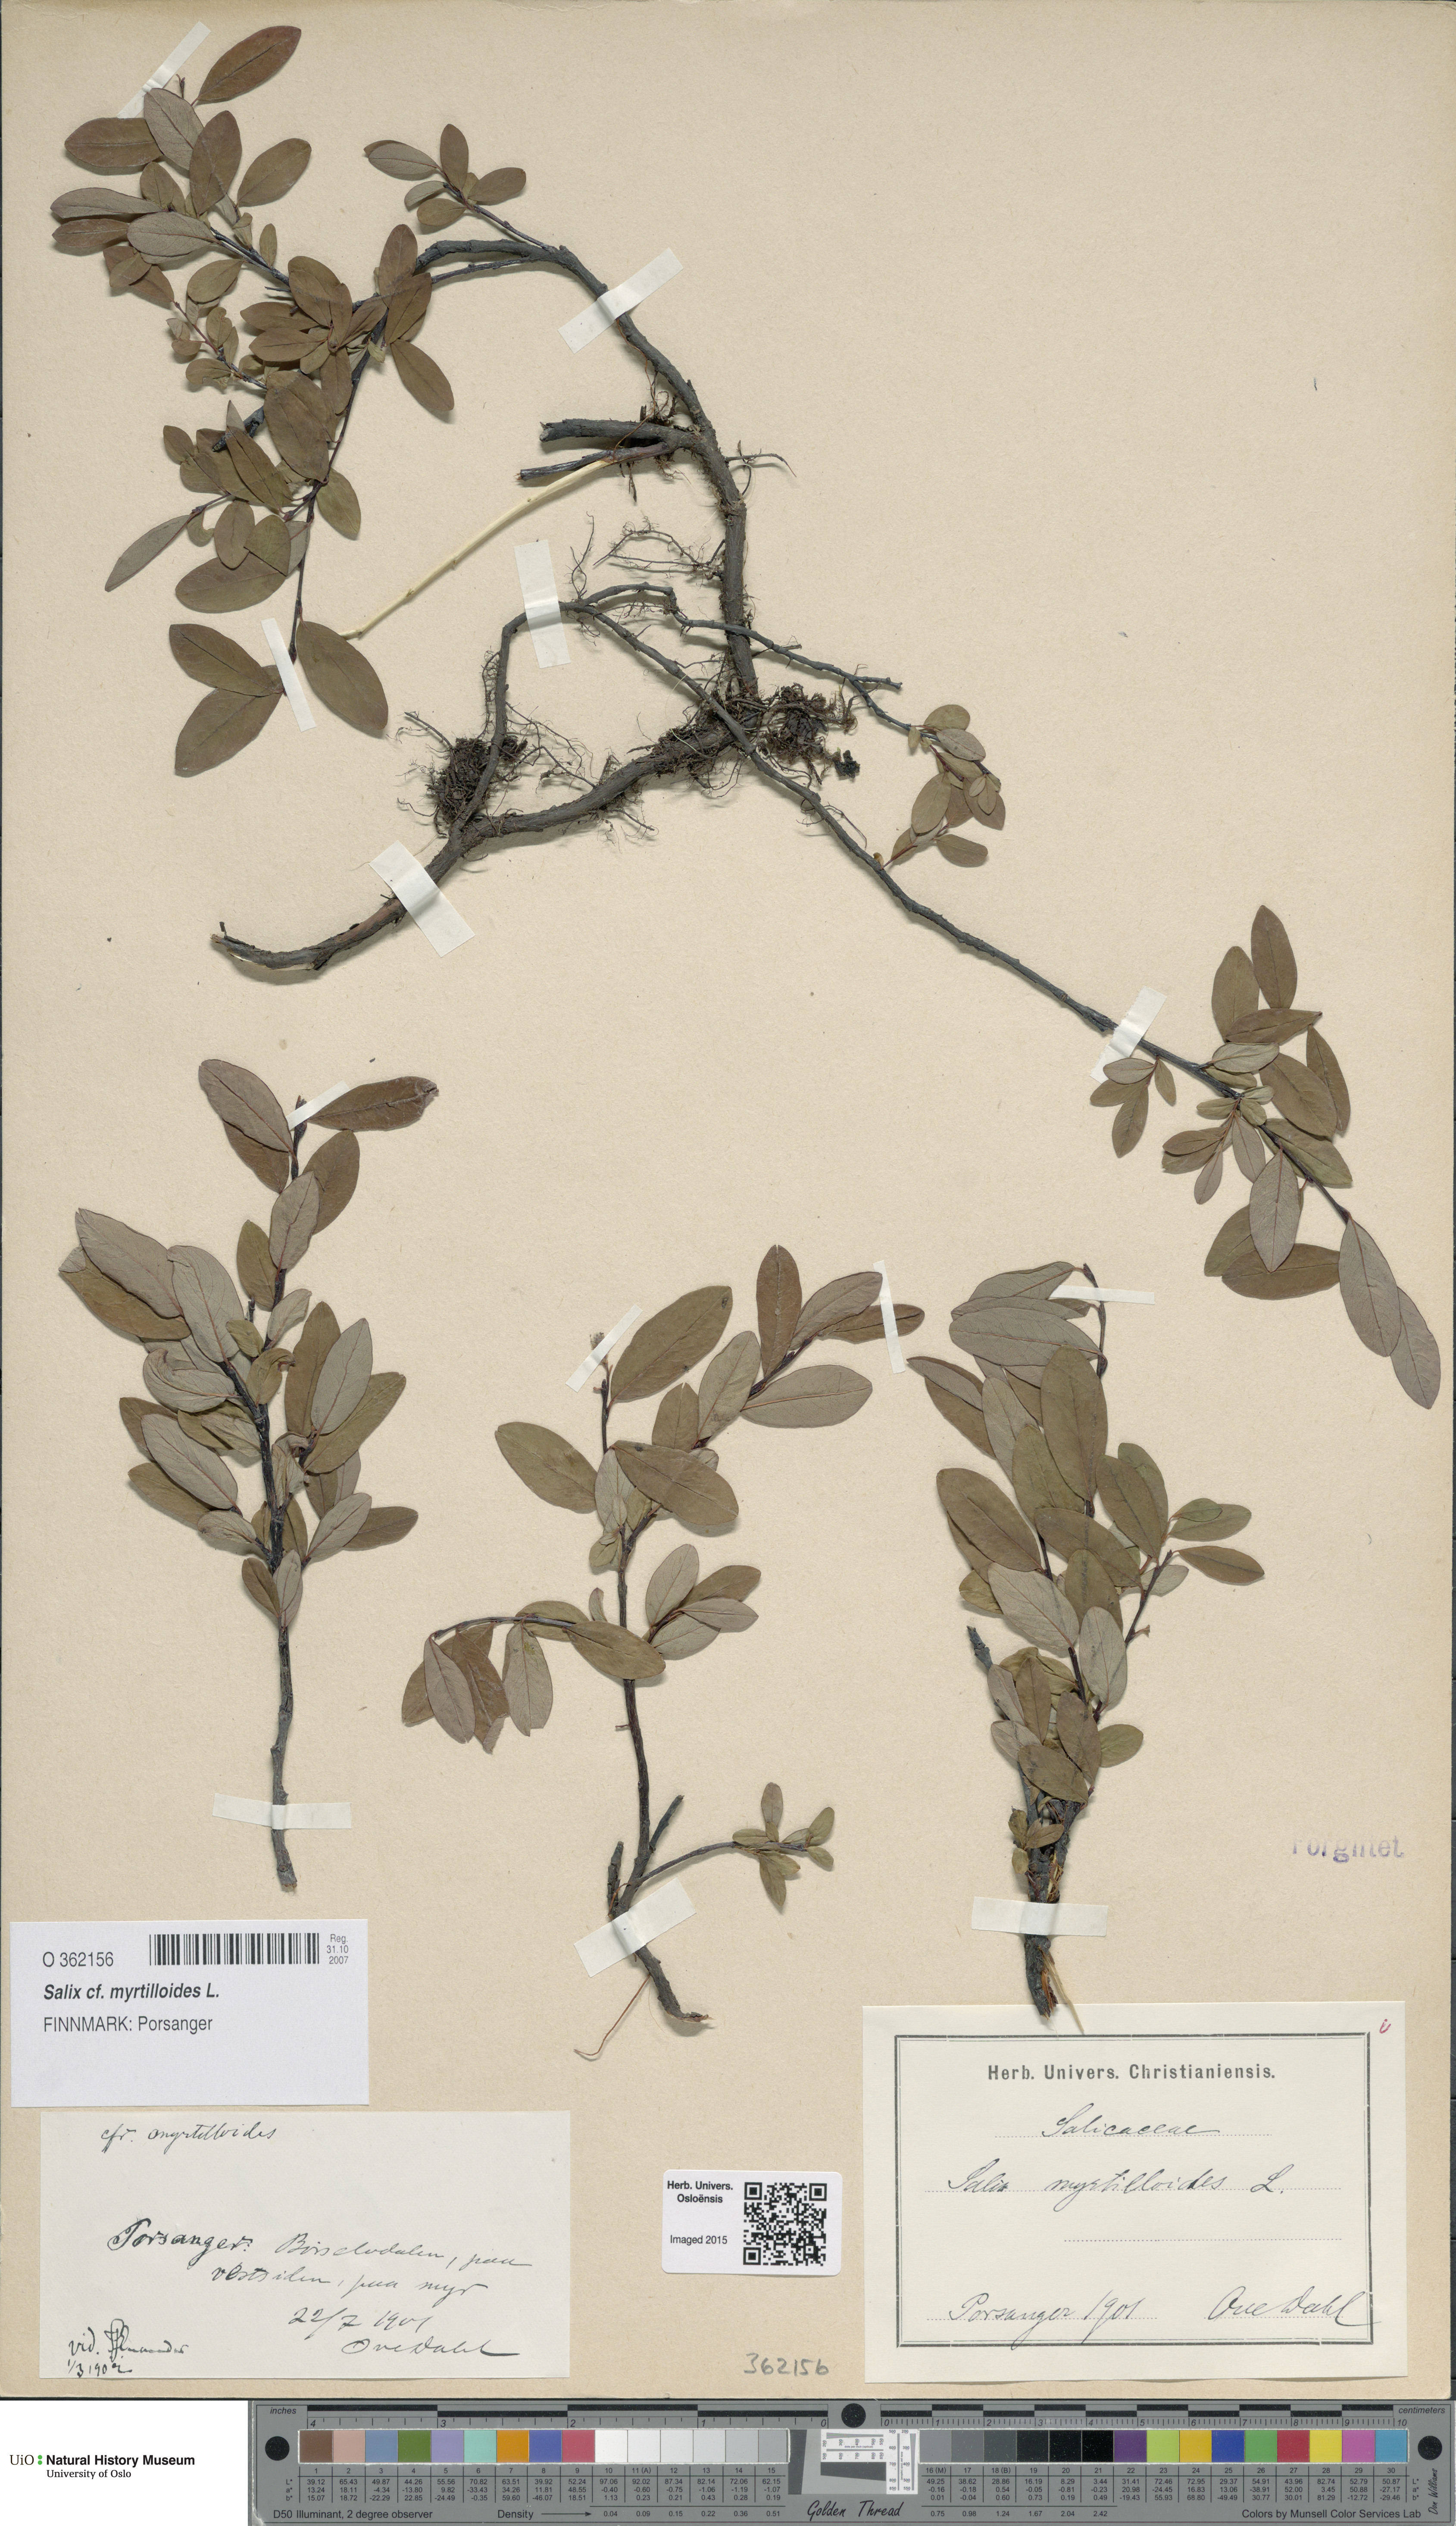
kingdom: Plantae
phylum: Tracheophyta
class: Magnoliopsida
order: Malpighiales
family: Salicaceae
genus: Salix
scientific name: Salix myrtilloides
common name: Myrtle-leaved willow
